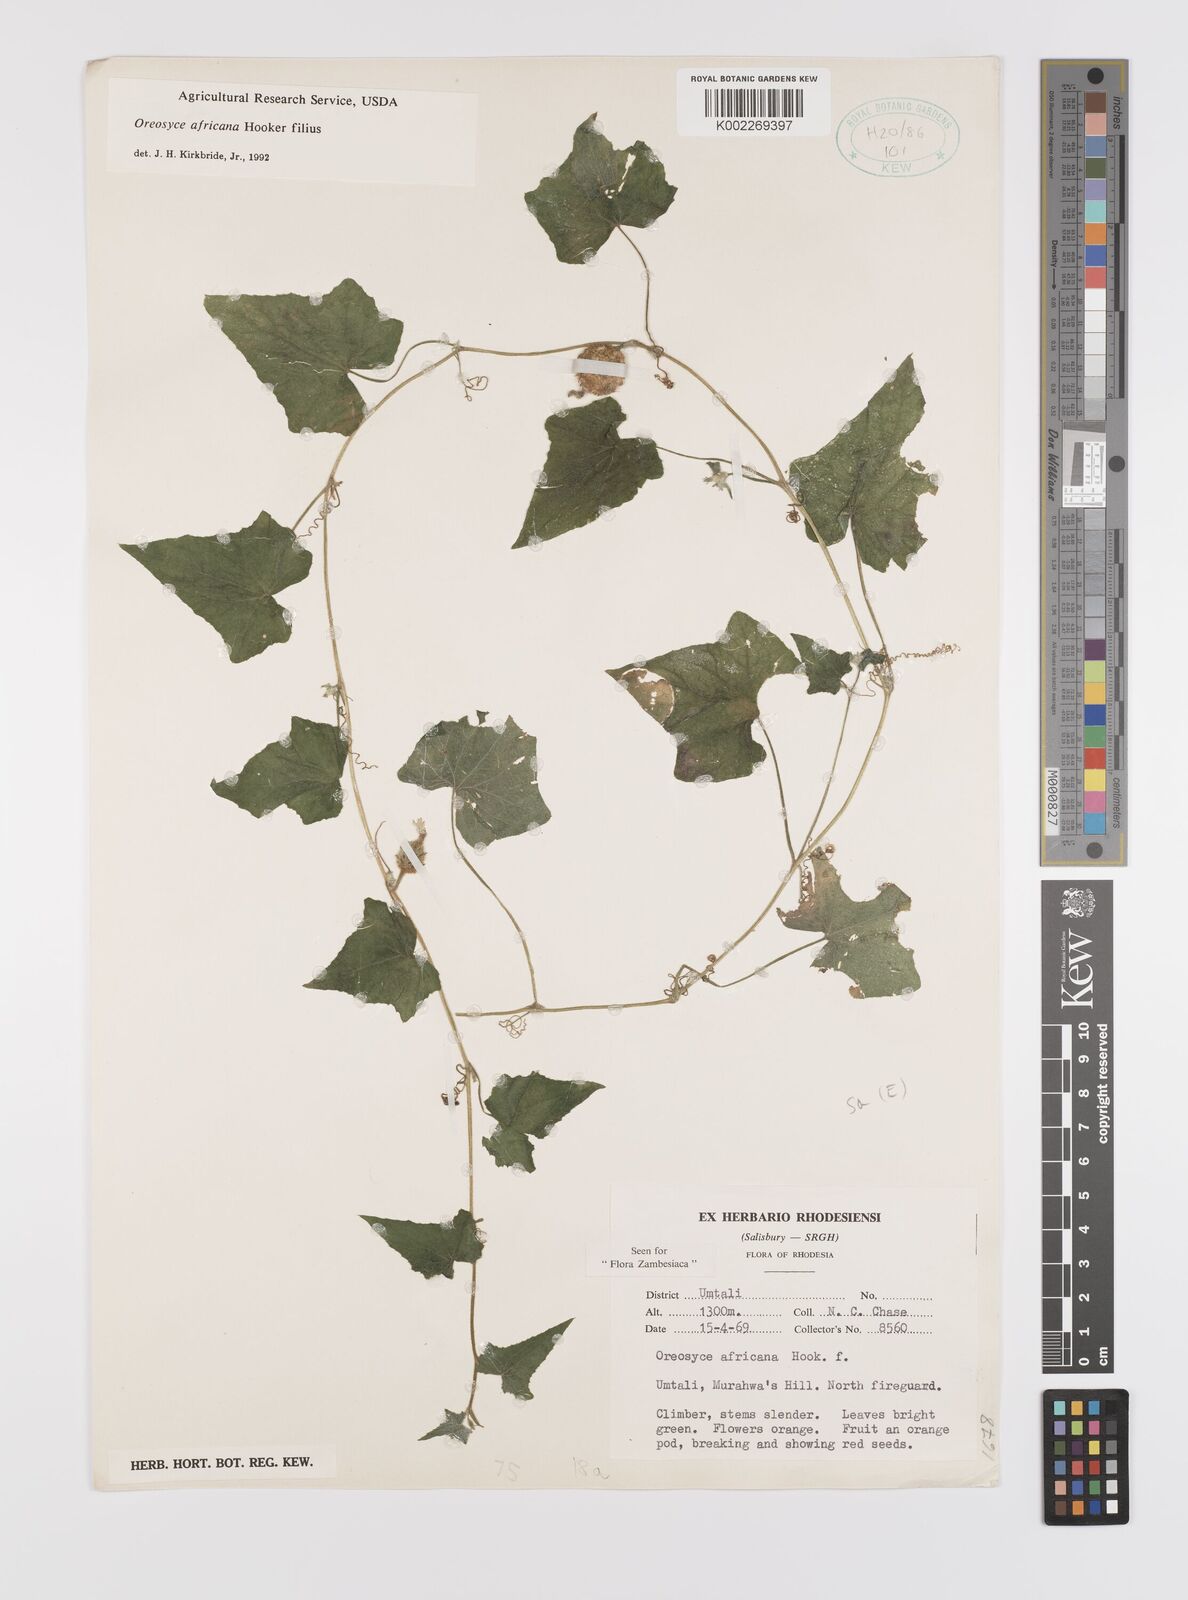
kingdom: Plantae
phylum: Tracheophyta
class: Magnoliopsida
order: Cucurbitales
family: Cucurbitaceae
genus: Cucumis
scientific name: Cucumis oreosyce
